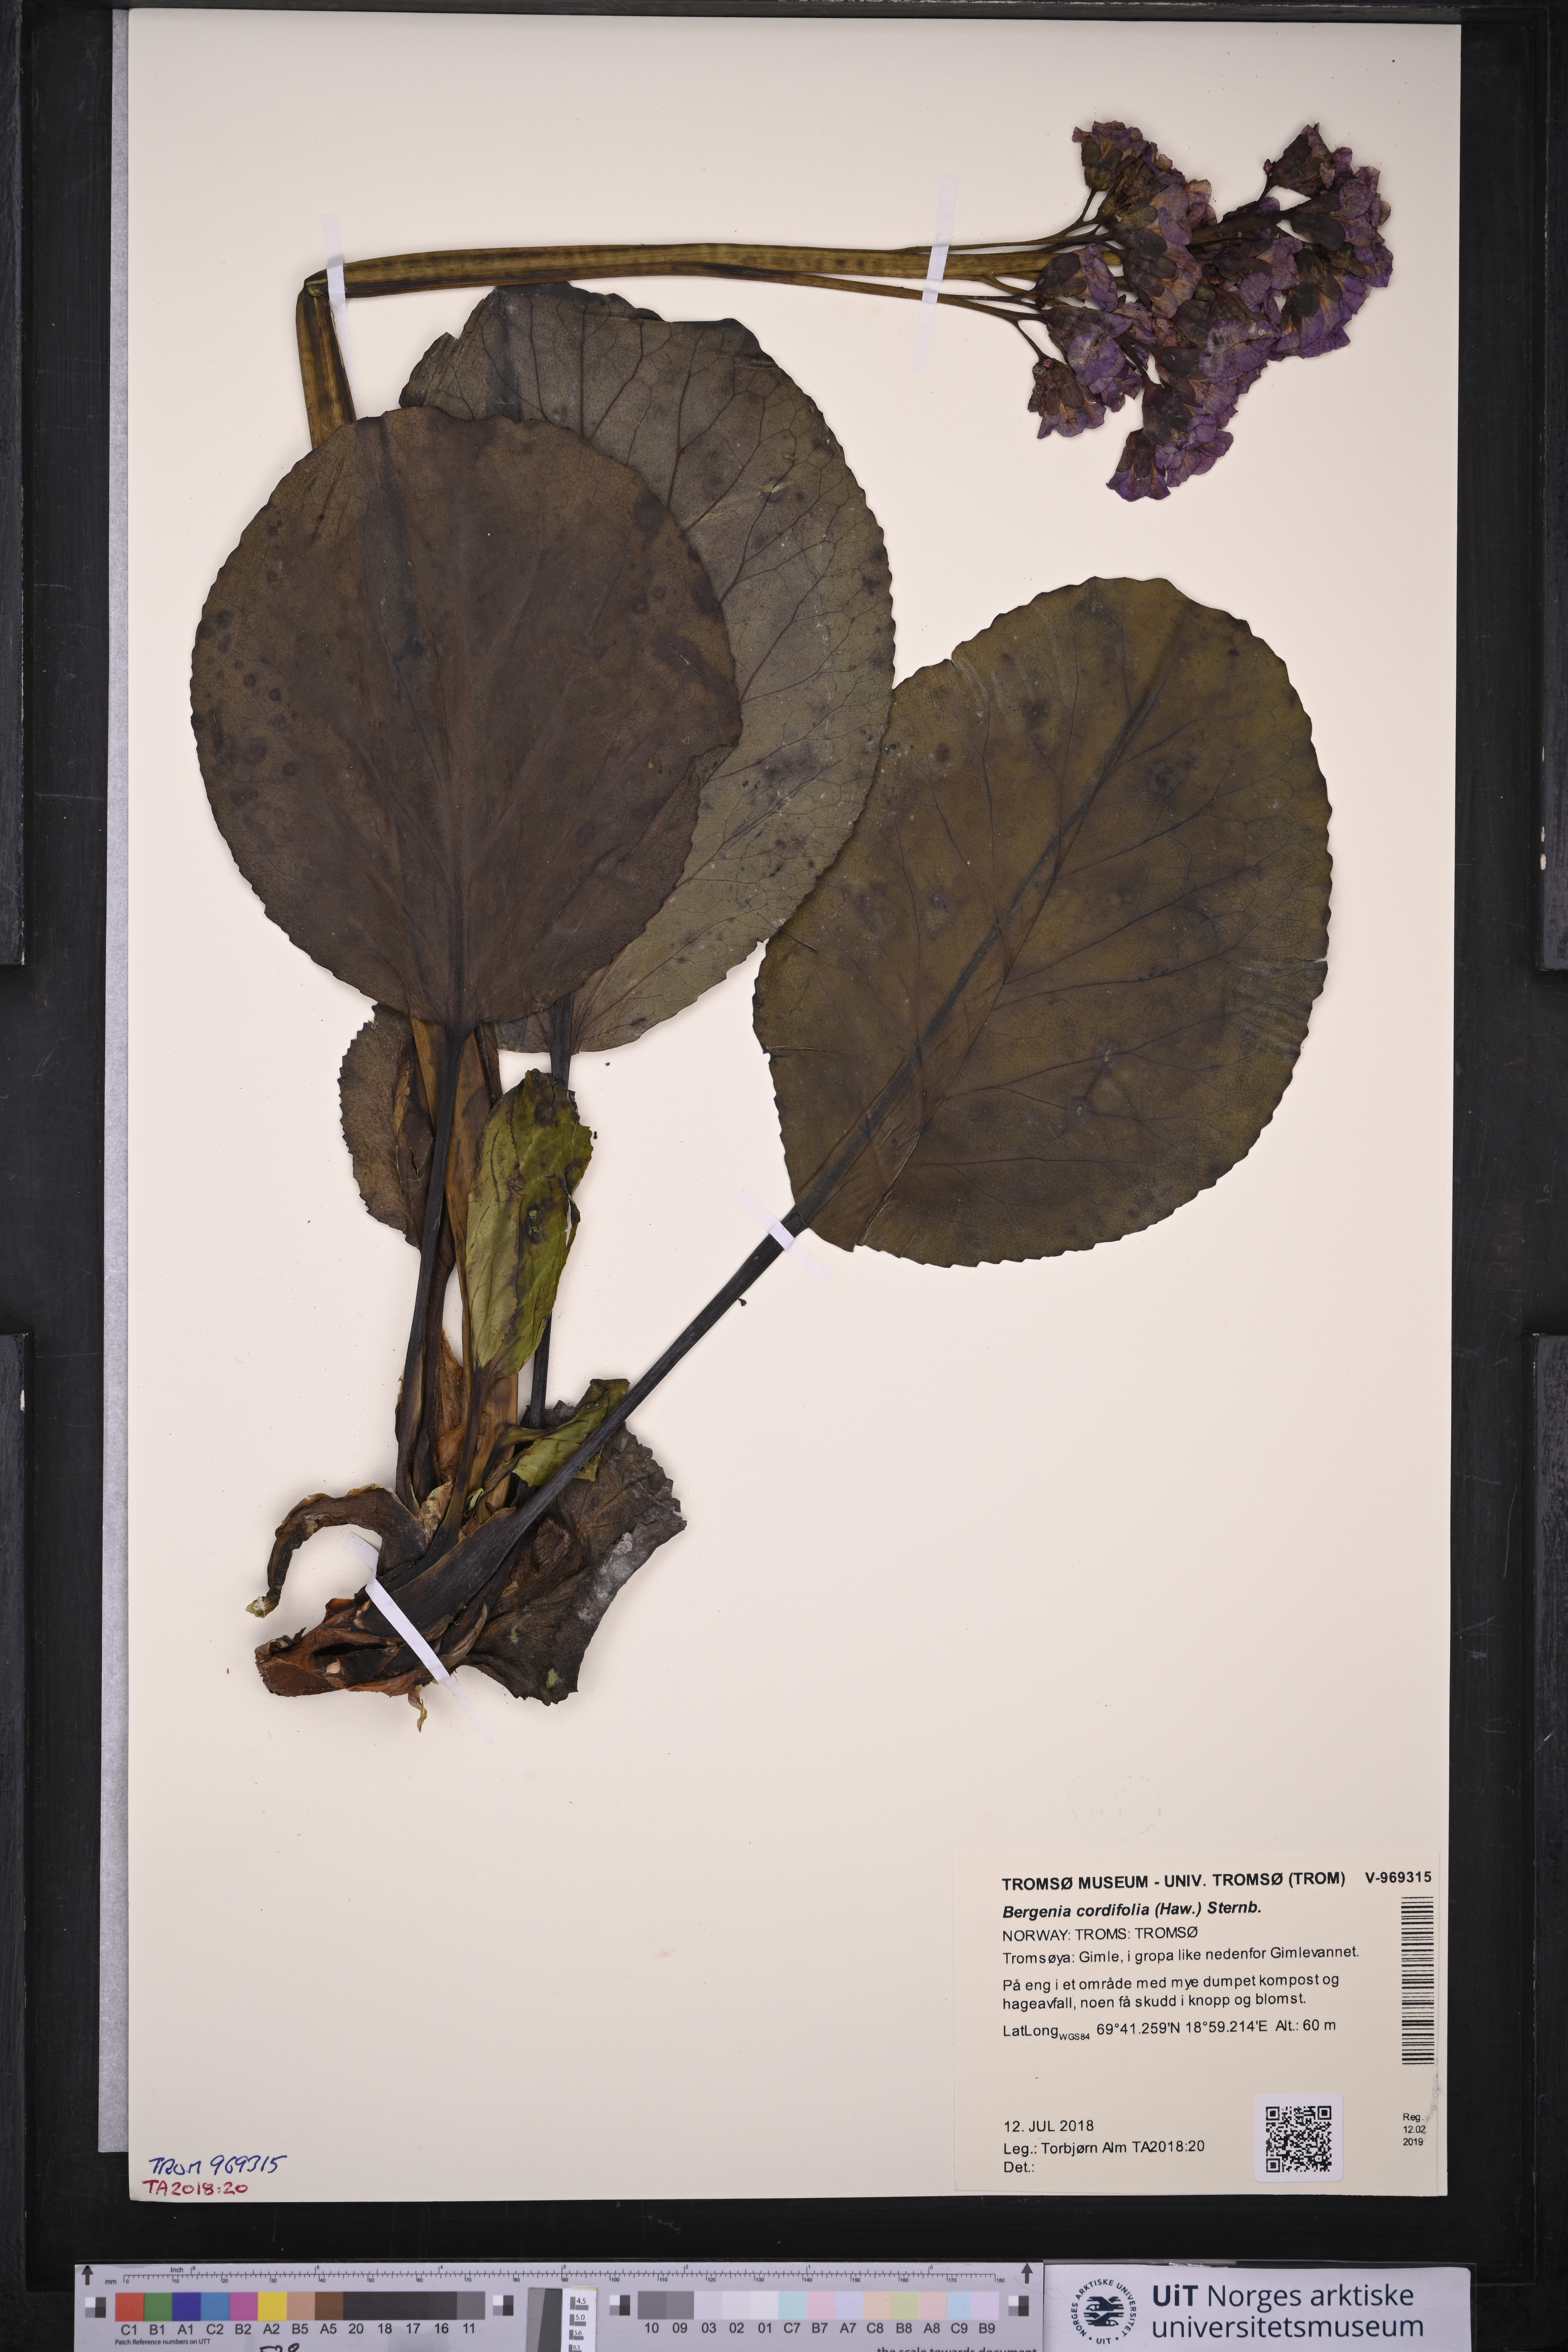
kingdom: Plantae
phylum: Tracheophyta
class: Magnoliopsida
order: Saxifragales
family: Saxifragaceae
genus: Bergenia
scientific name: Bergenia crassifolia
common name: Elephant-ears
